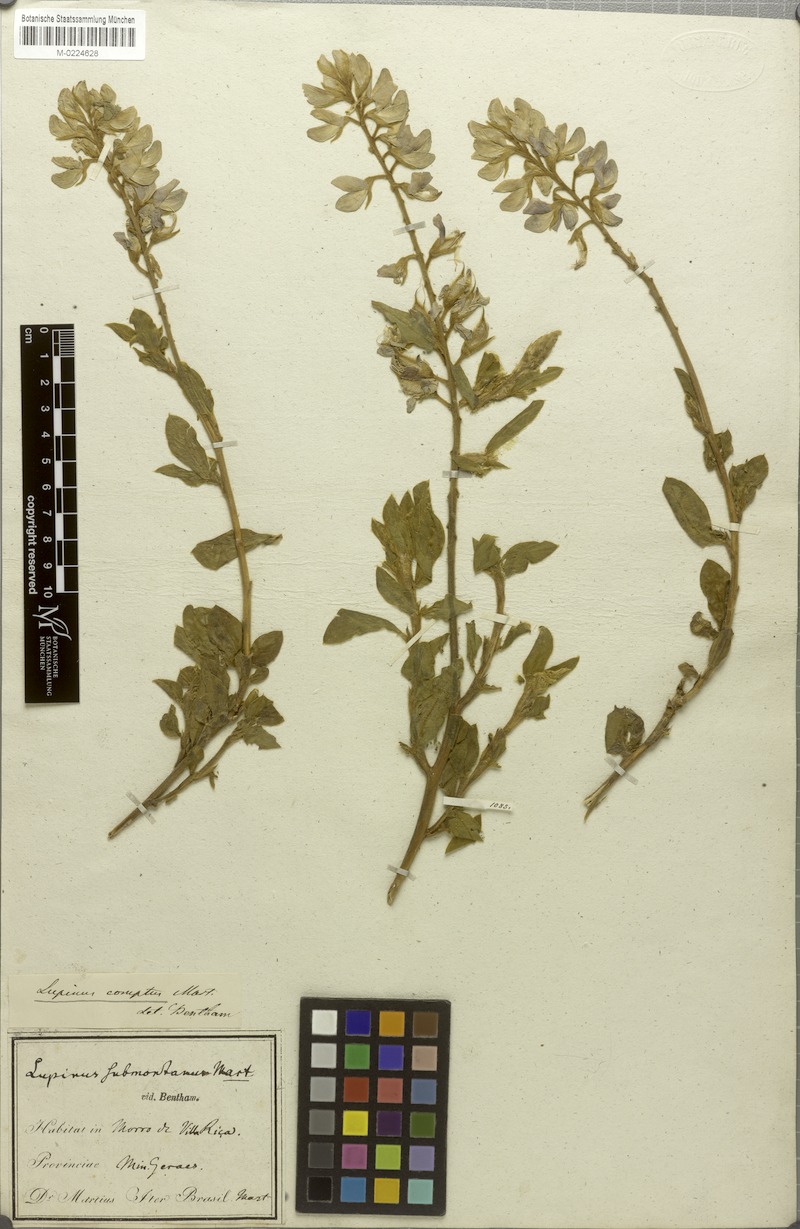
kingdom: Plantae
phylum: Tracheophyta
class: Magnoliopsida
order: Fabales
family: Fabaceae
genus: Lupinus
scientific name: Lupinus comptus
